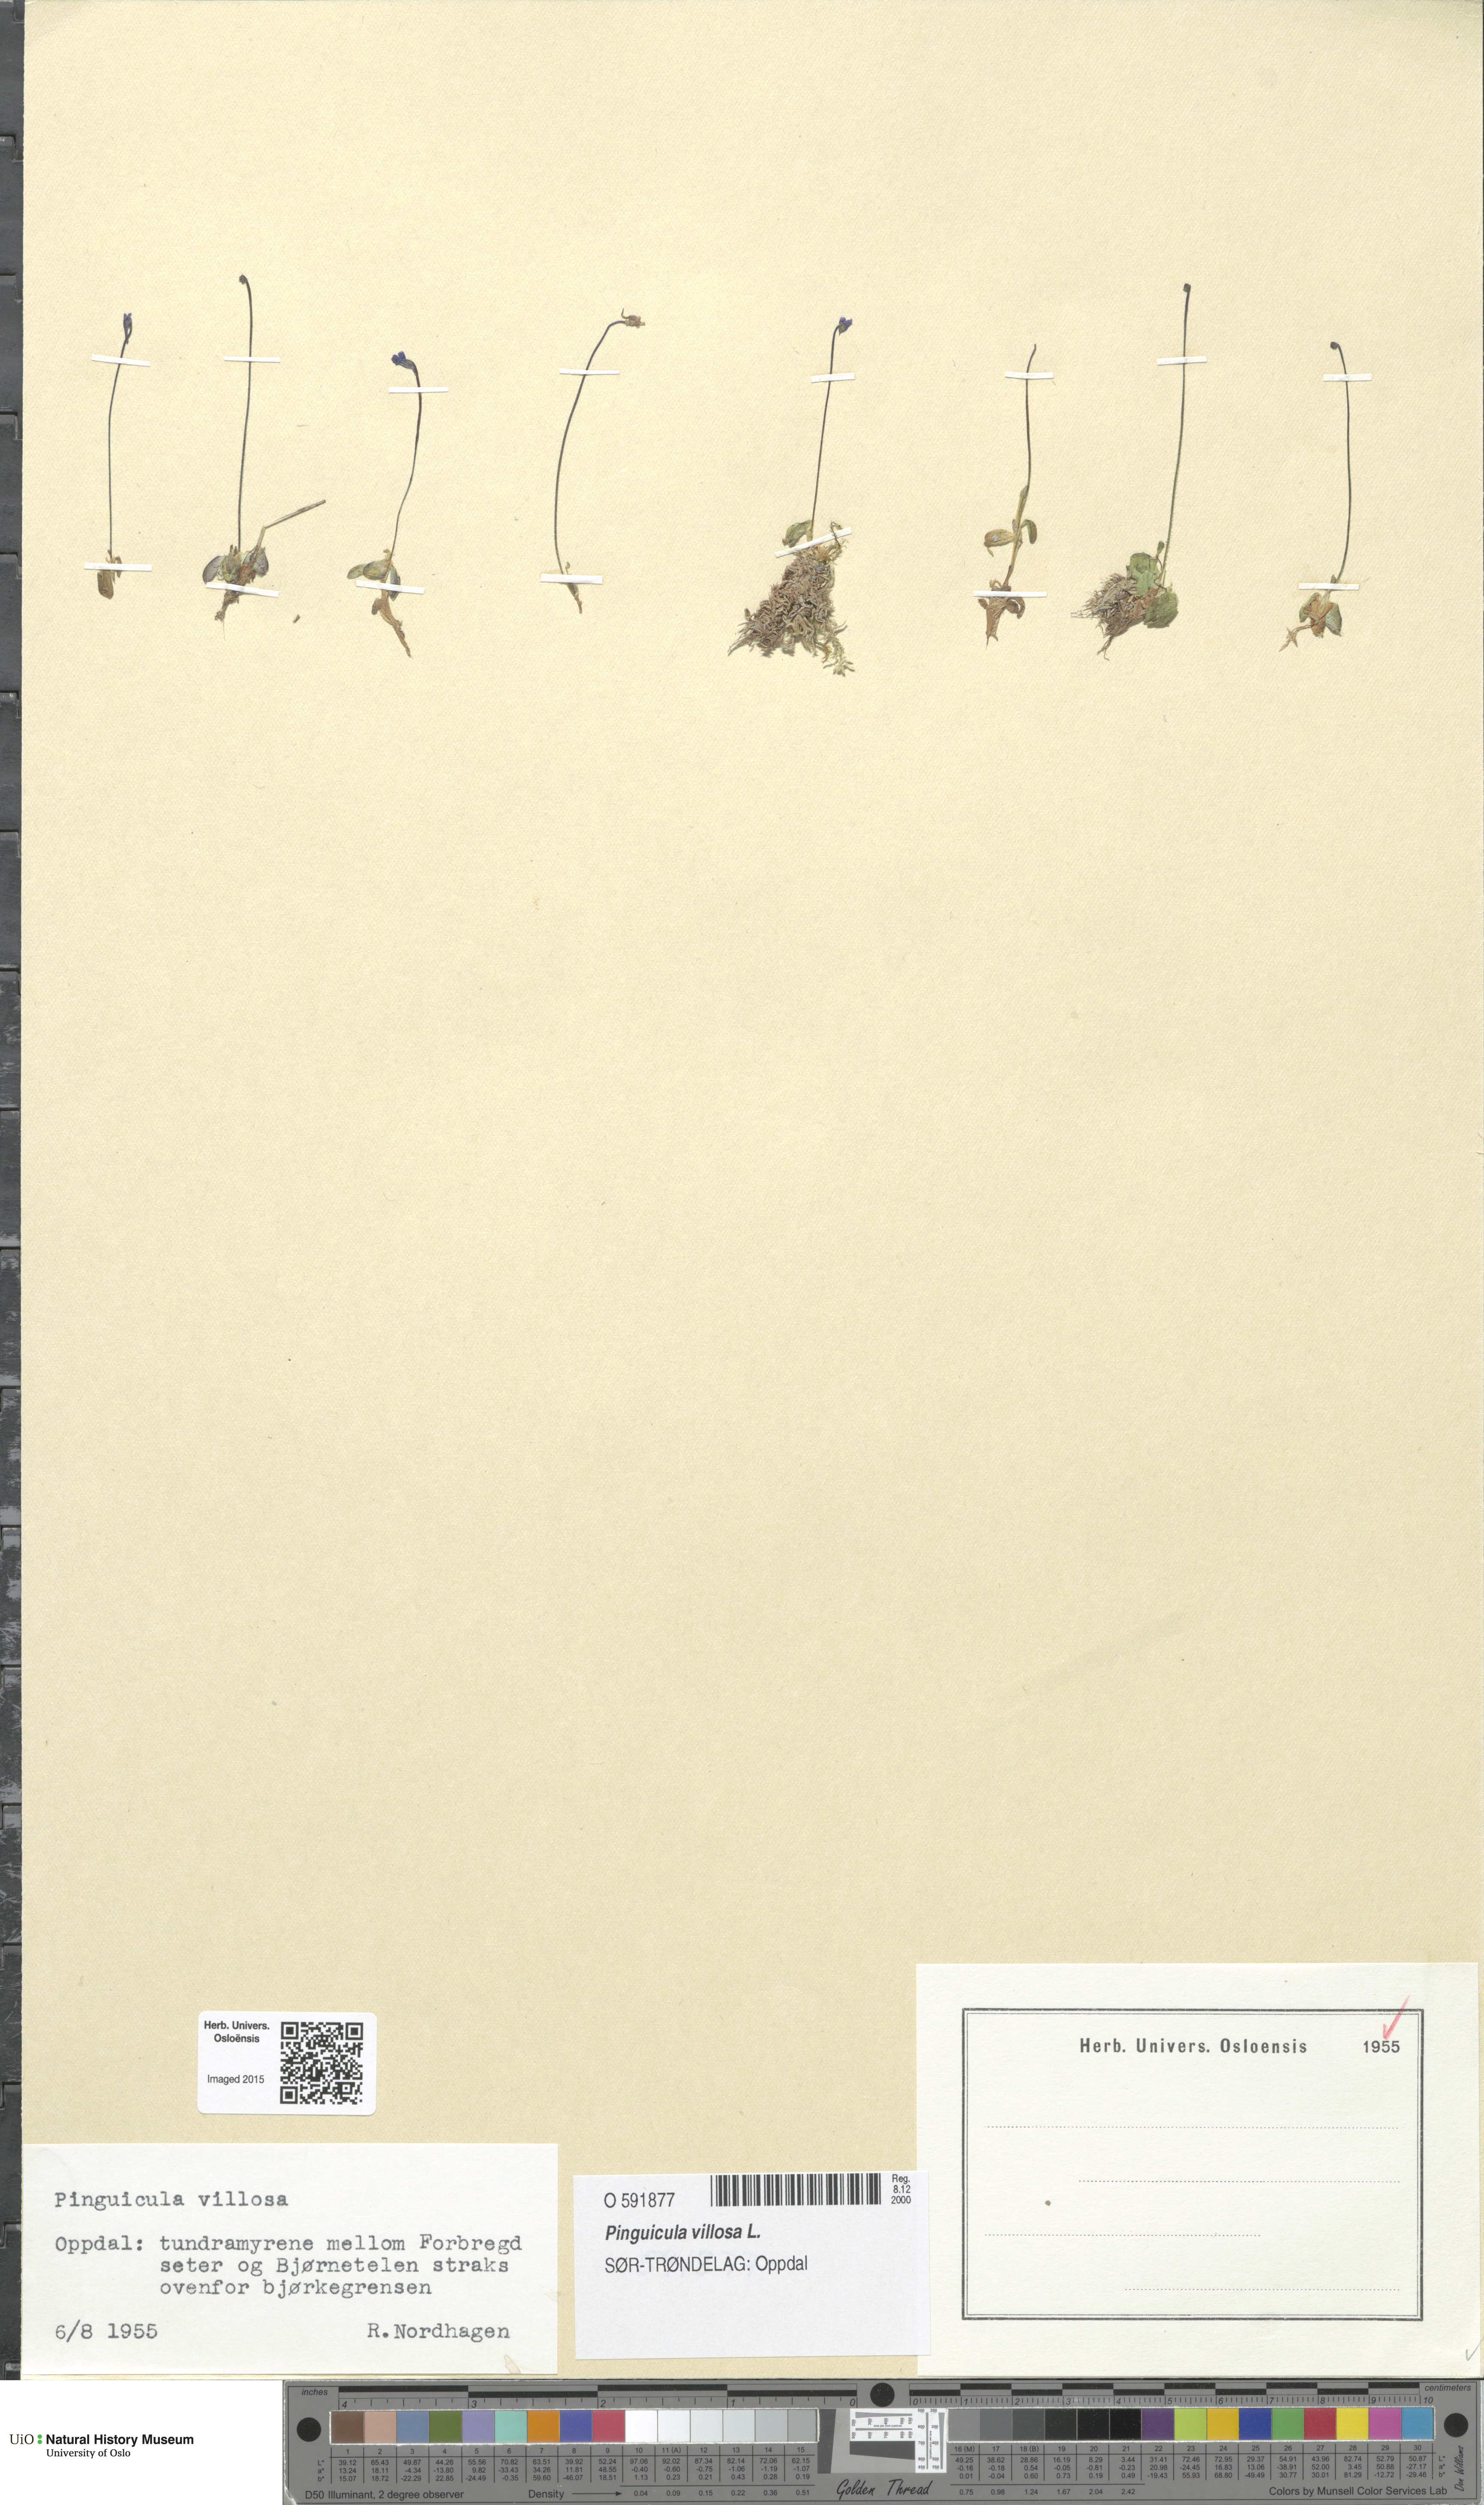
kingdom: Plantae
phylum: Tracheophyta
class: Magnoliopsida
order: Lamiales
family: Lentibulariaceae
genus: Pinguicula
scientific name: Pinguicula villosa
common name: Hairy butterwort
